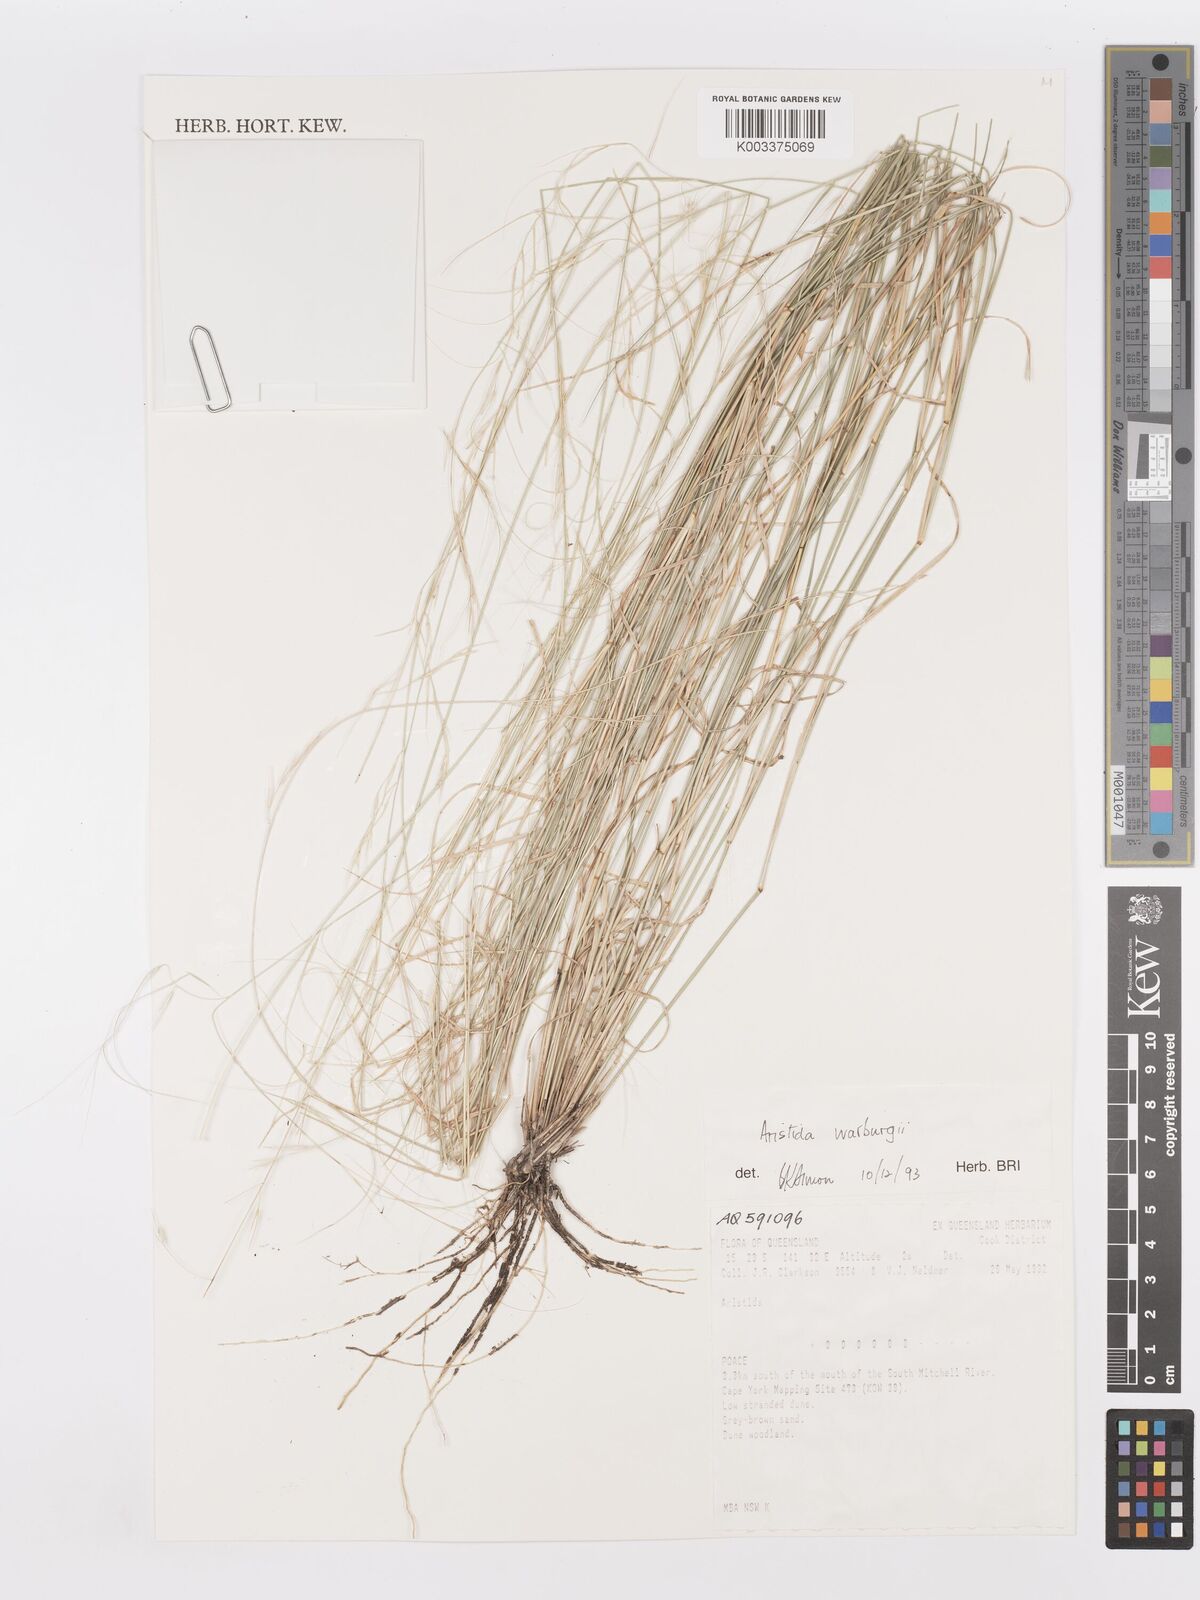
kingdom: Plantae
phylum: Tracheophyta
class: Liliopsida
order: Poales
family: Poaceae
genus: Aristida
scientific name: Aristida warburgii
